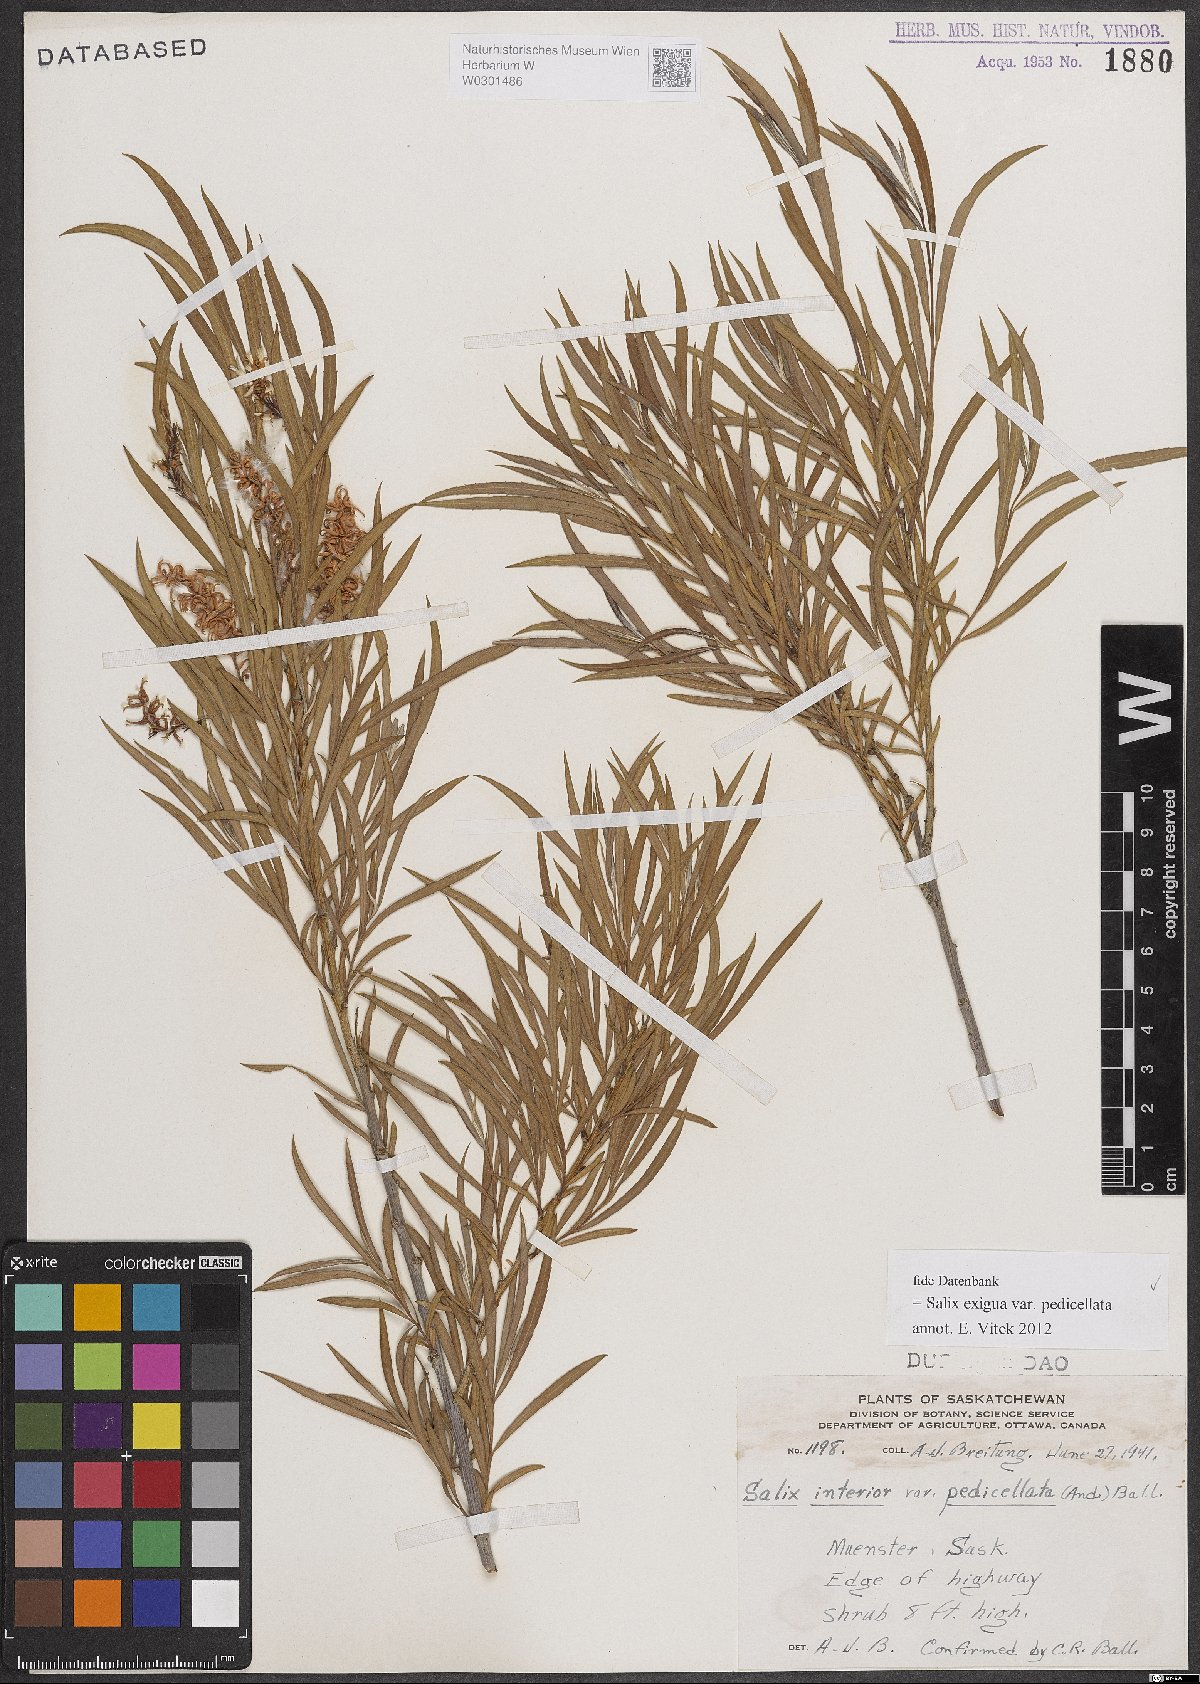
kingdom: Plantae
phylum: Tracheophyta
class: Magnoliopsida
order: Malpighiales
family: Salicaceae
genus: Salix
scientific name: Salix interior
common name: Sandbar willow
